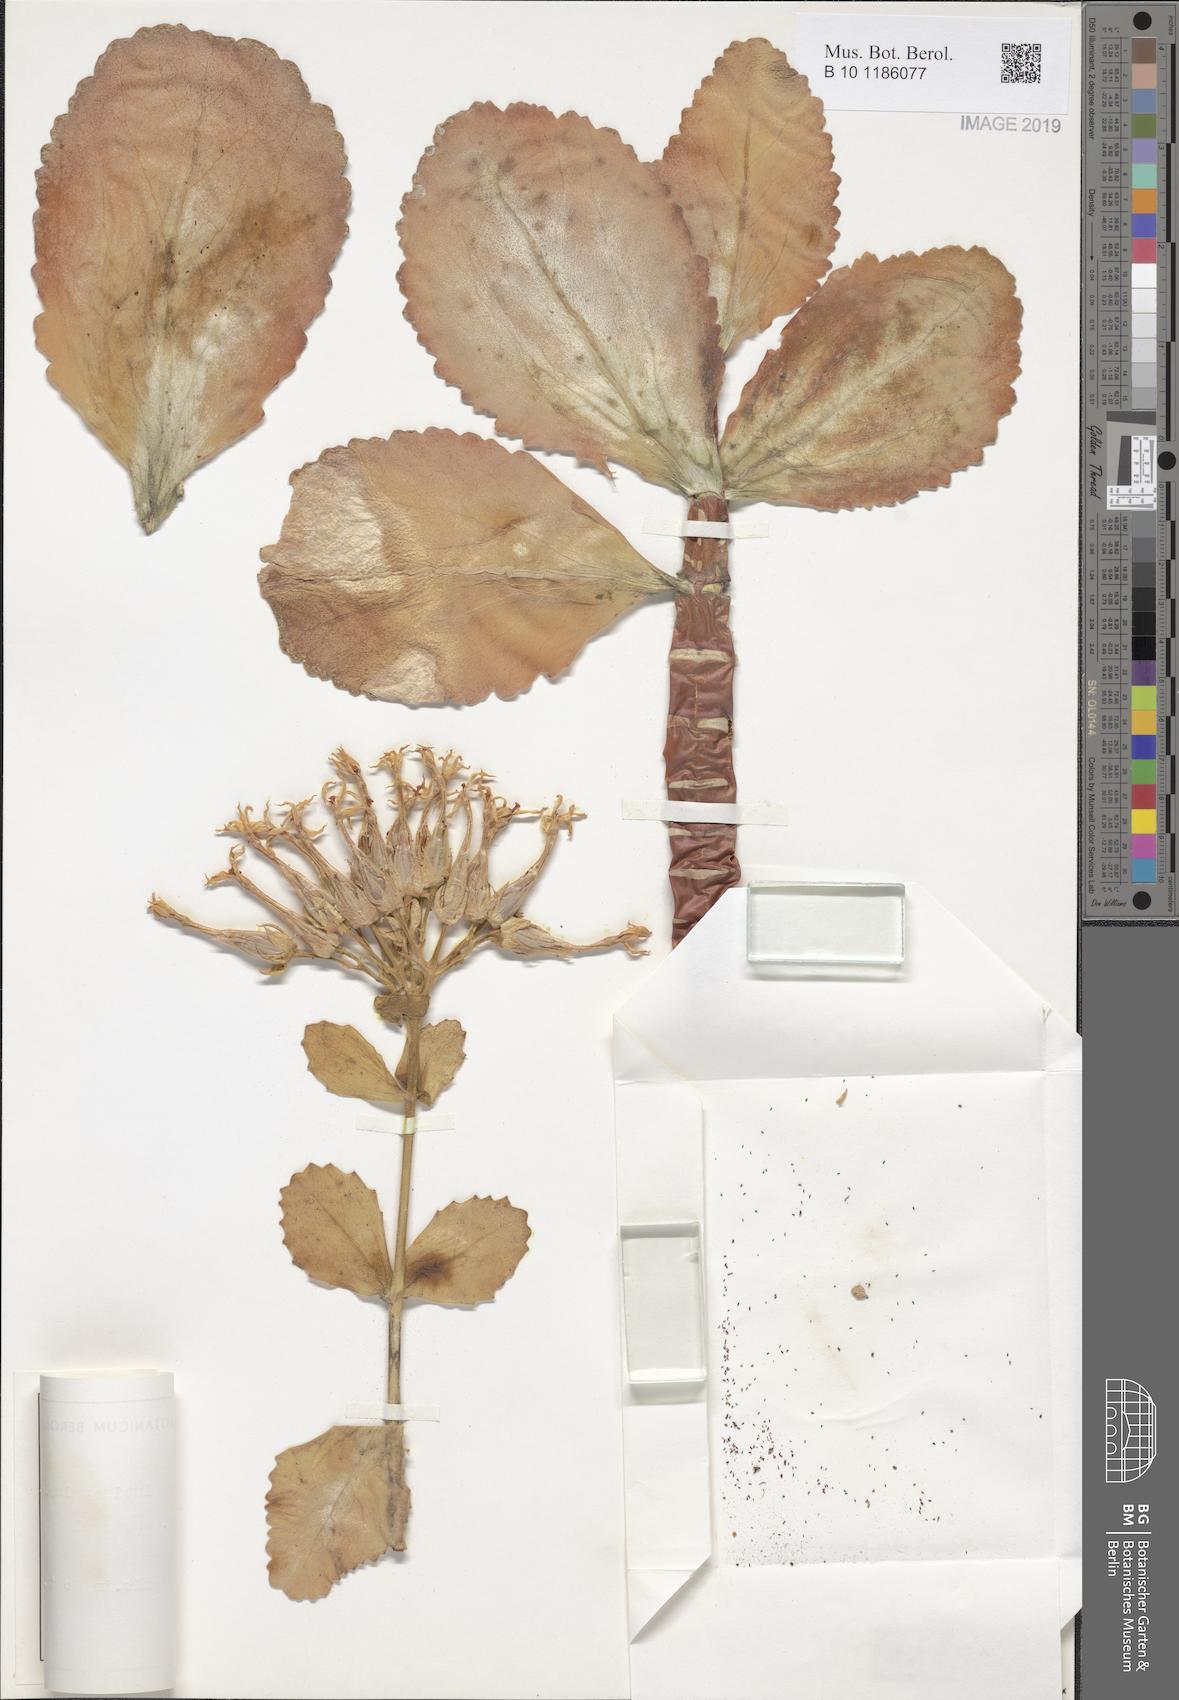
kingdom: Plantae
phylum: Tracheophyta
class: Magnoliopsida
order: Saxifragales
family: Crassulaceae
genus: Kalanchoe
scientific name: Kalanchoe latisepala
